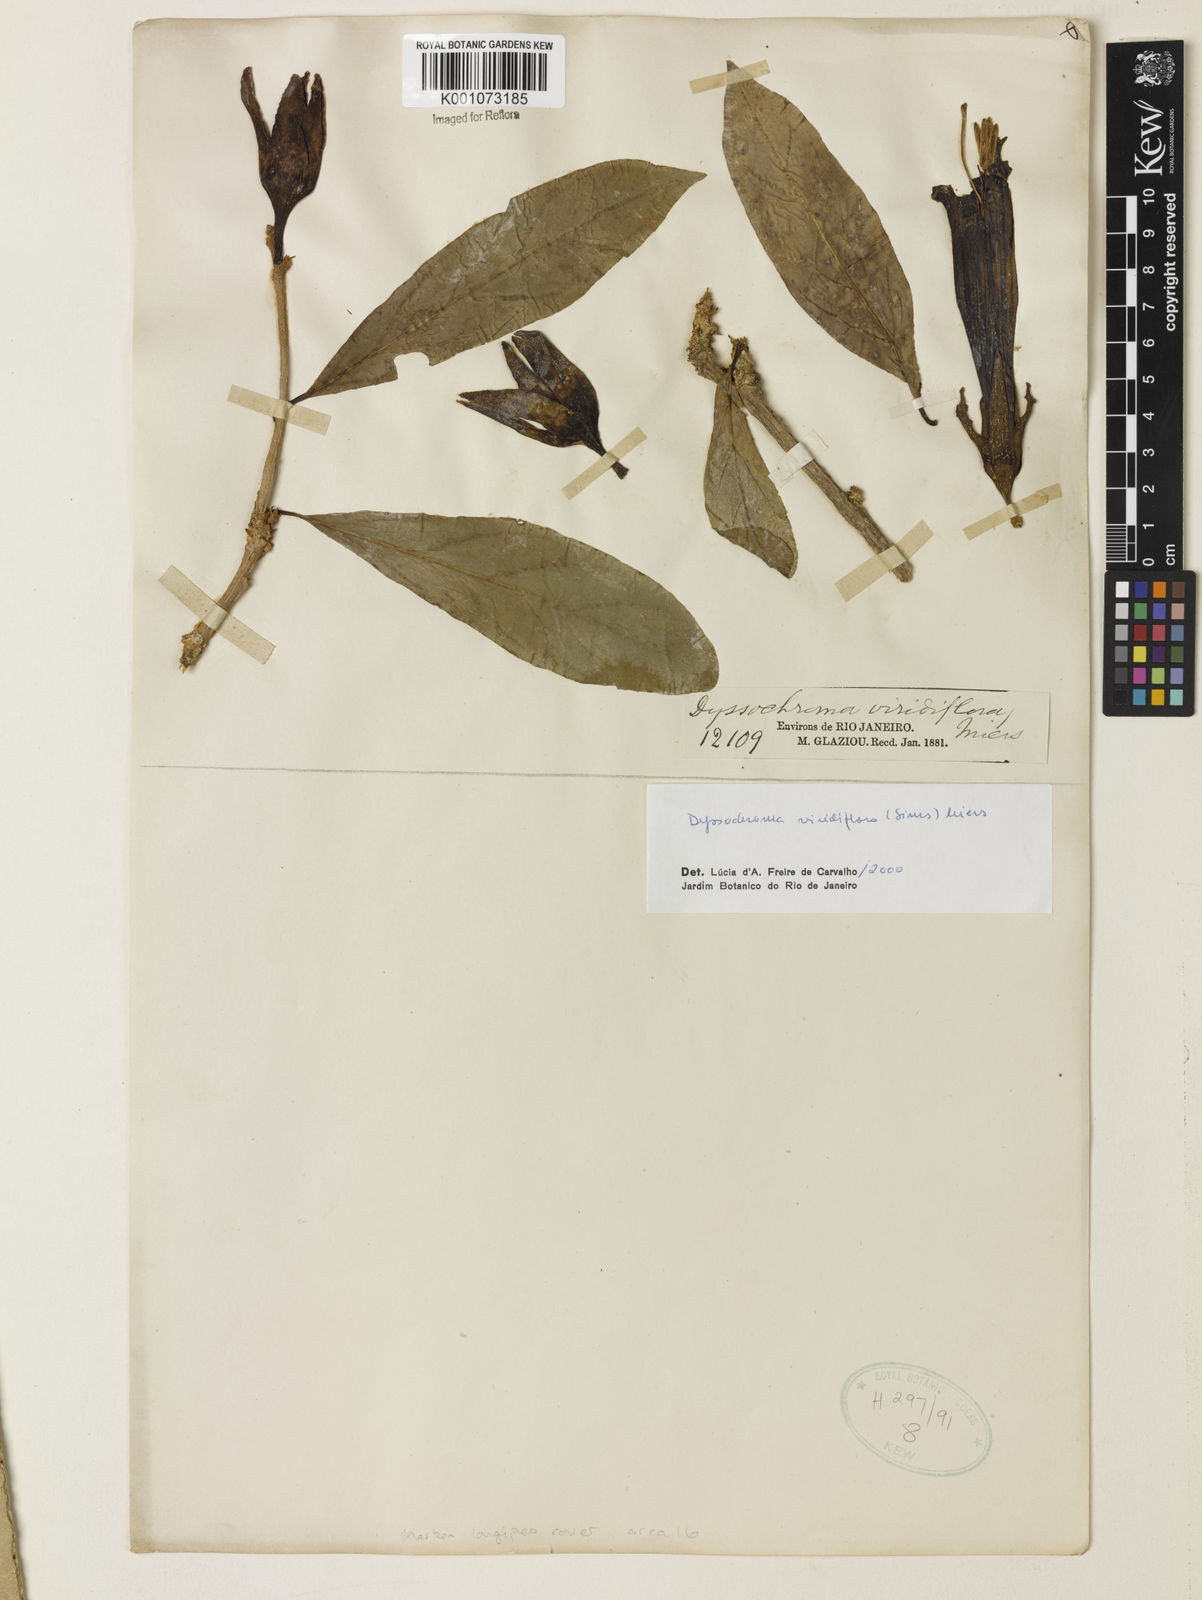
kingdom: Plantae
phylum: Tracheophyta
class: Magnoliopsida
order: Solanales
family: Solanaceae
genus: Dyssochroma
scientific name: Dyssochroma viridiflorum
